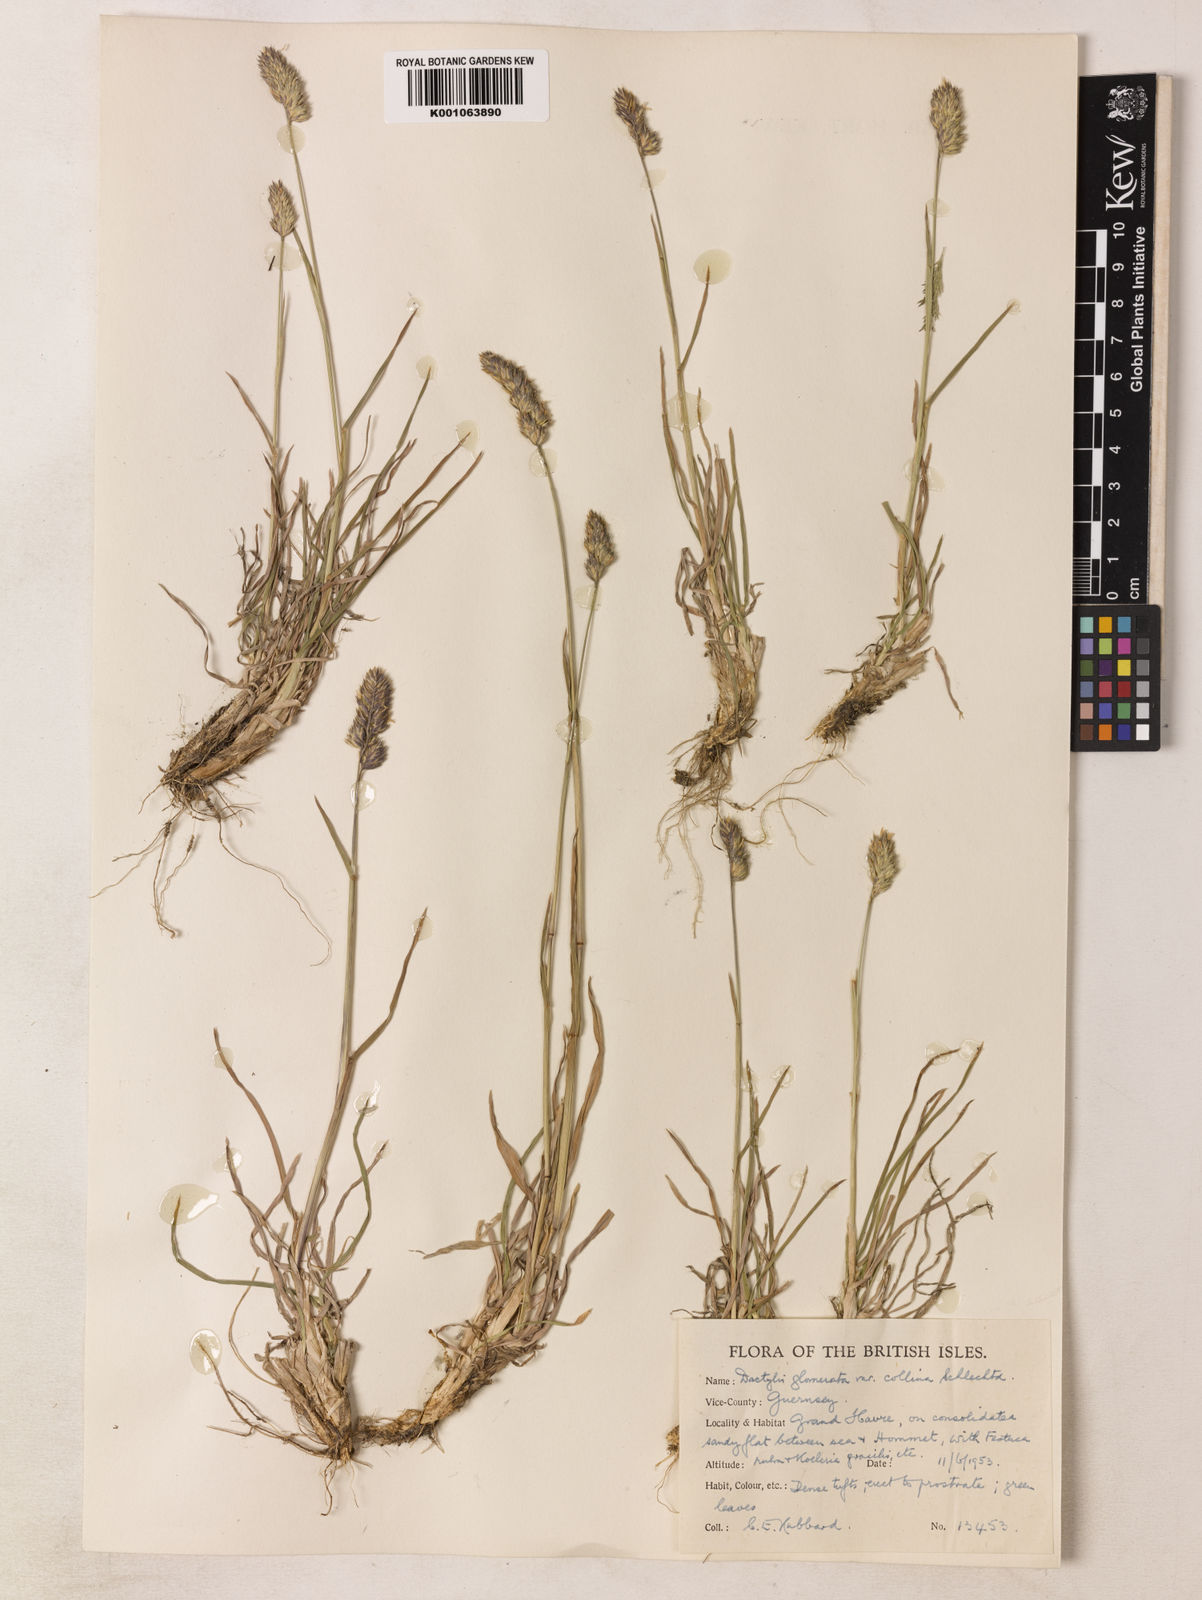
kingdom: Plantae
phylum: Tracheophyta
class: Liliopsida
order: Poales
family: Poaceae
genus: Dactylis
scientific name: Dactylis glomerata
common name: Orchardgrass
